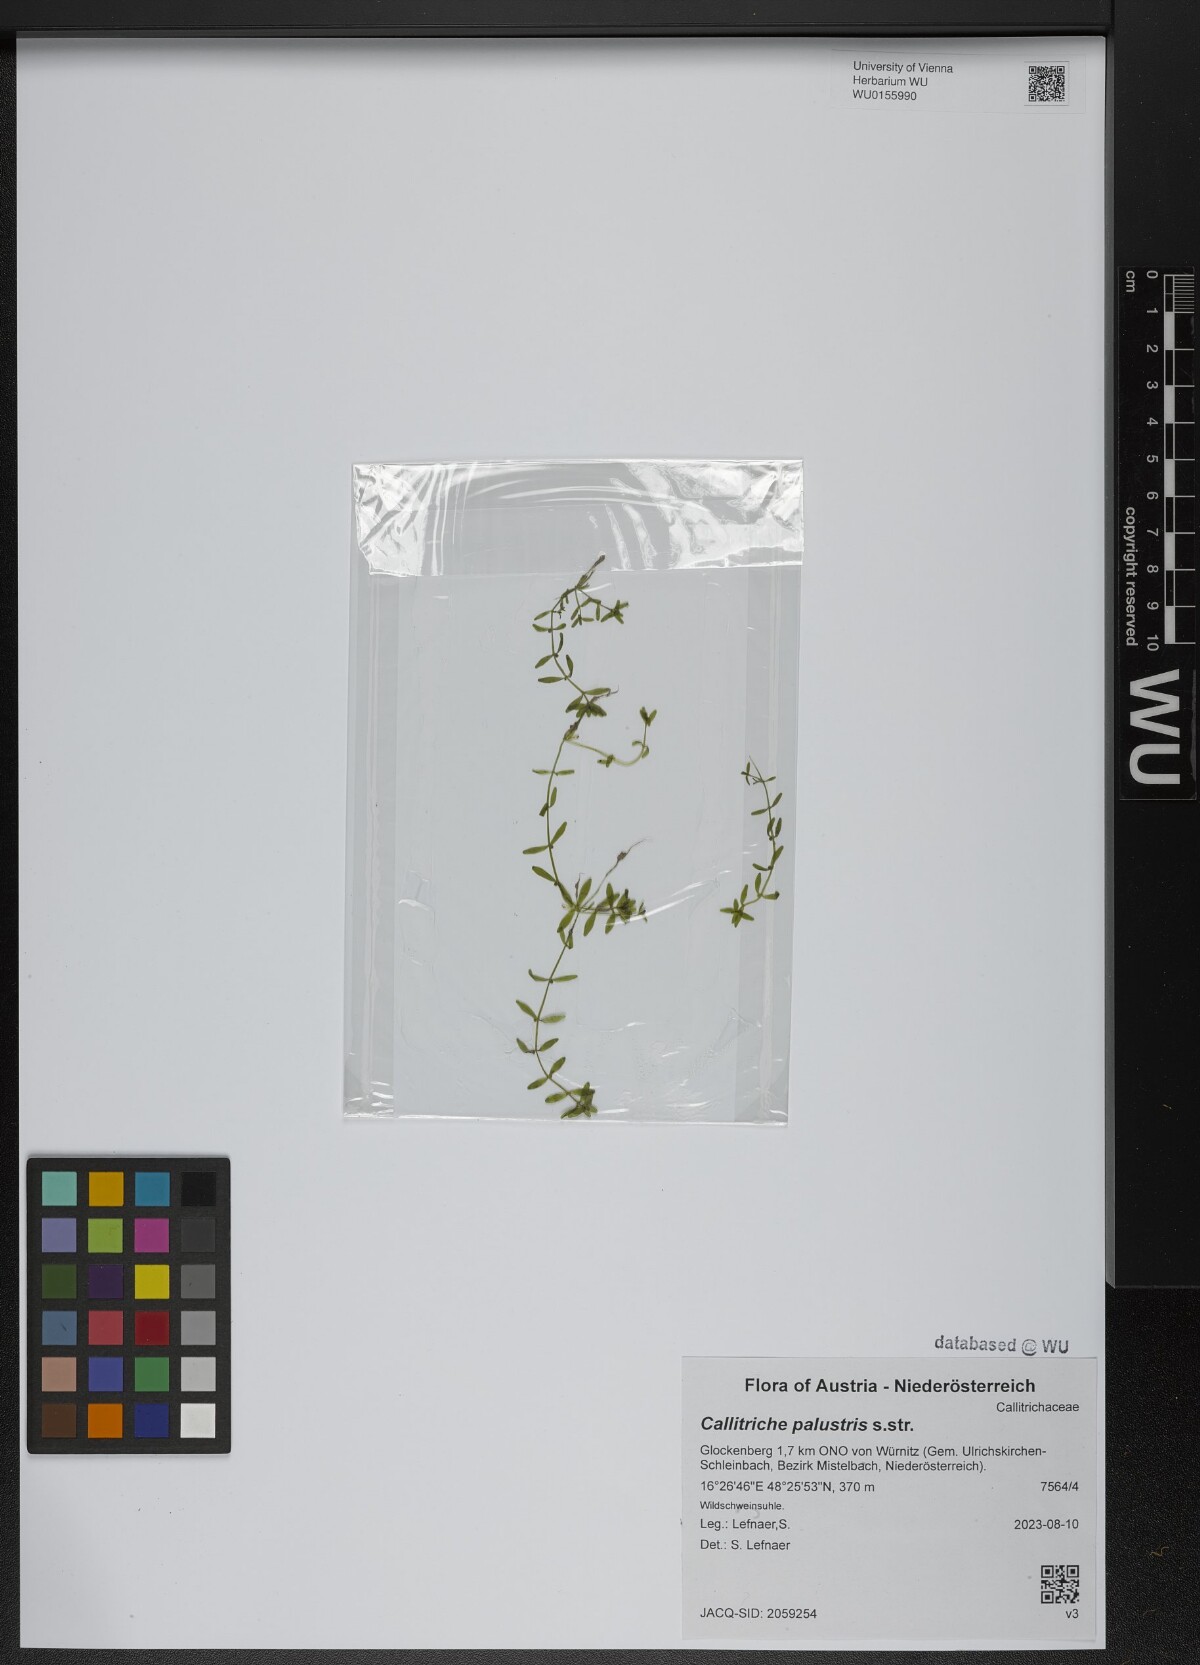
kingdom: Plantae
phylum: Tracheophyta
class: Magnoliopsida
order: Lamiales
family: Plantaginaceae
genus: Callitriche
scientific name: Callitriche palustris
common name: Spring water-starwort
